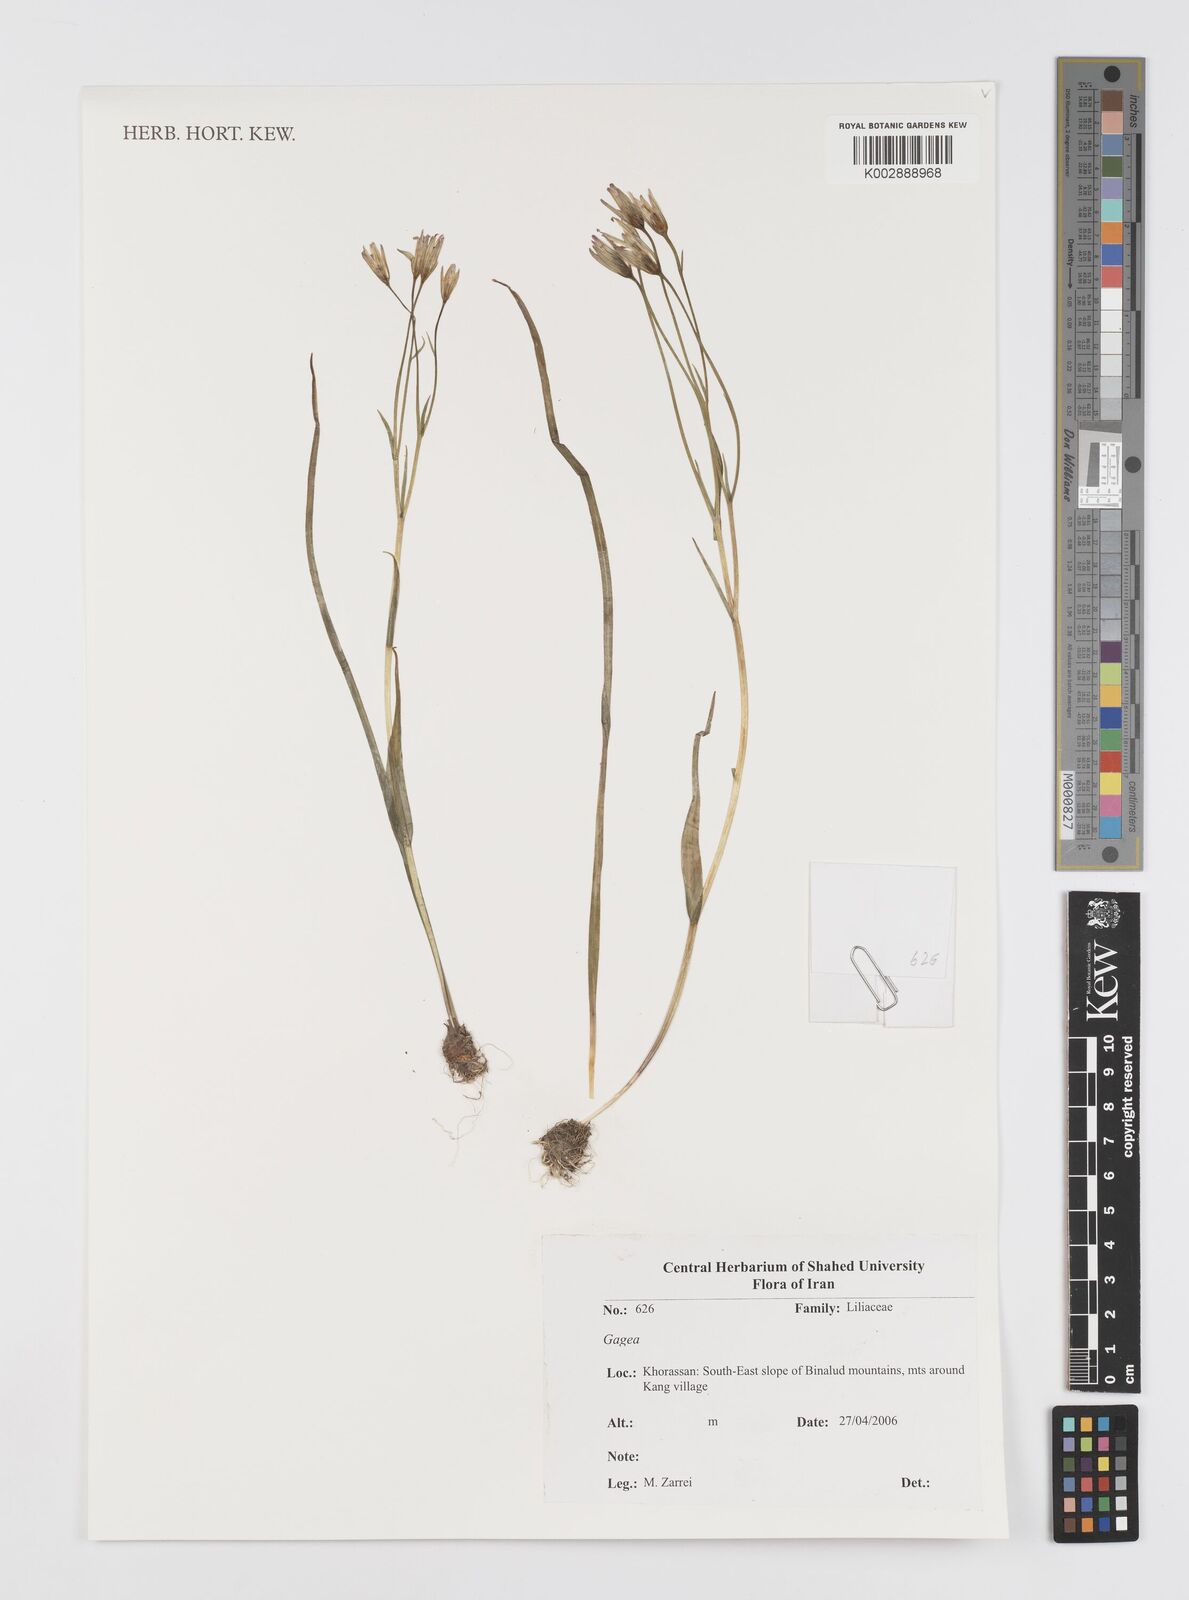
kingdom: Plantae
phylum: Tracheophyta
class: Liliopsida
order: Liliales
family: Liliaceae
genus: Gagea
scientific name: Gagea
